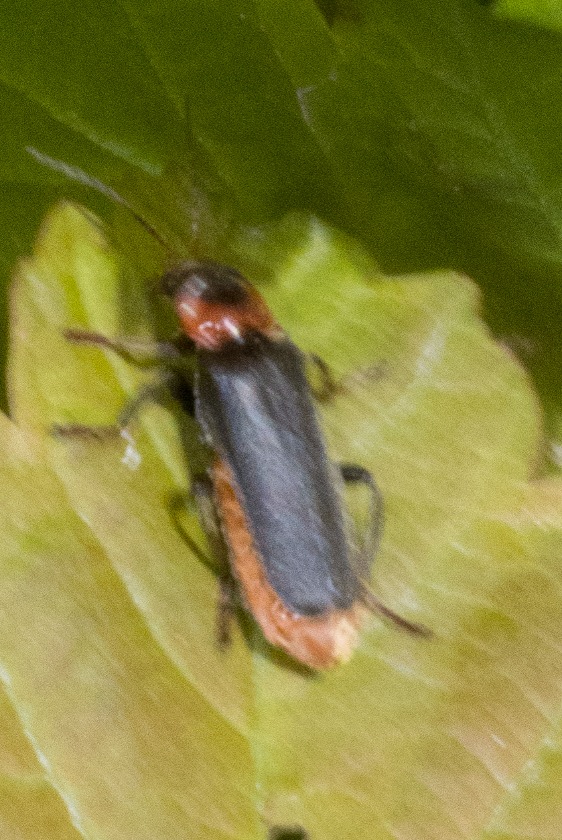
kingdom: Animalia
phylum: Arthropoda
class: Insecta
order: Coleoptera
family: Cantharidae
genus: Cantharis
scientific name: Cantharis fusca
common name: Stor blødvinge
